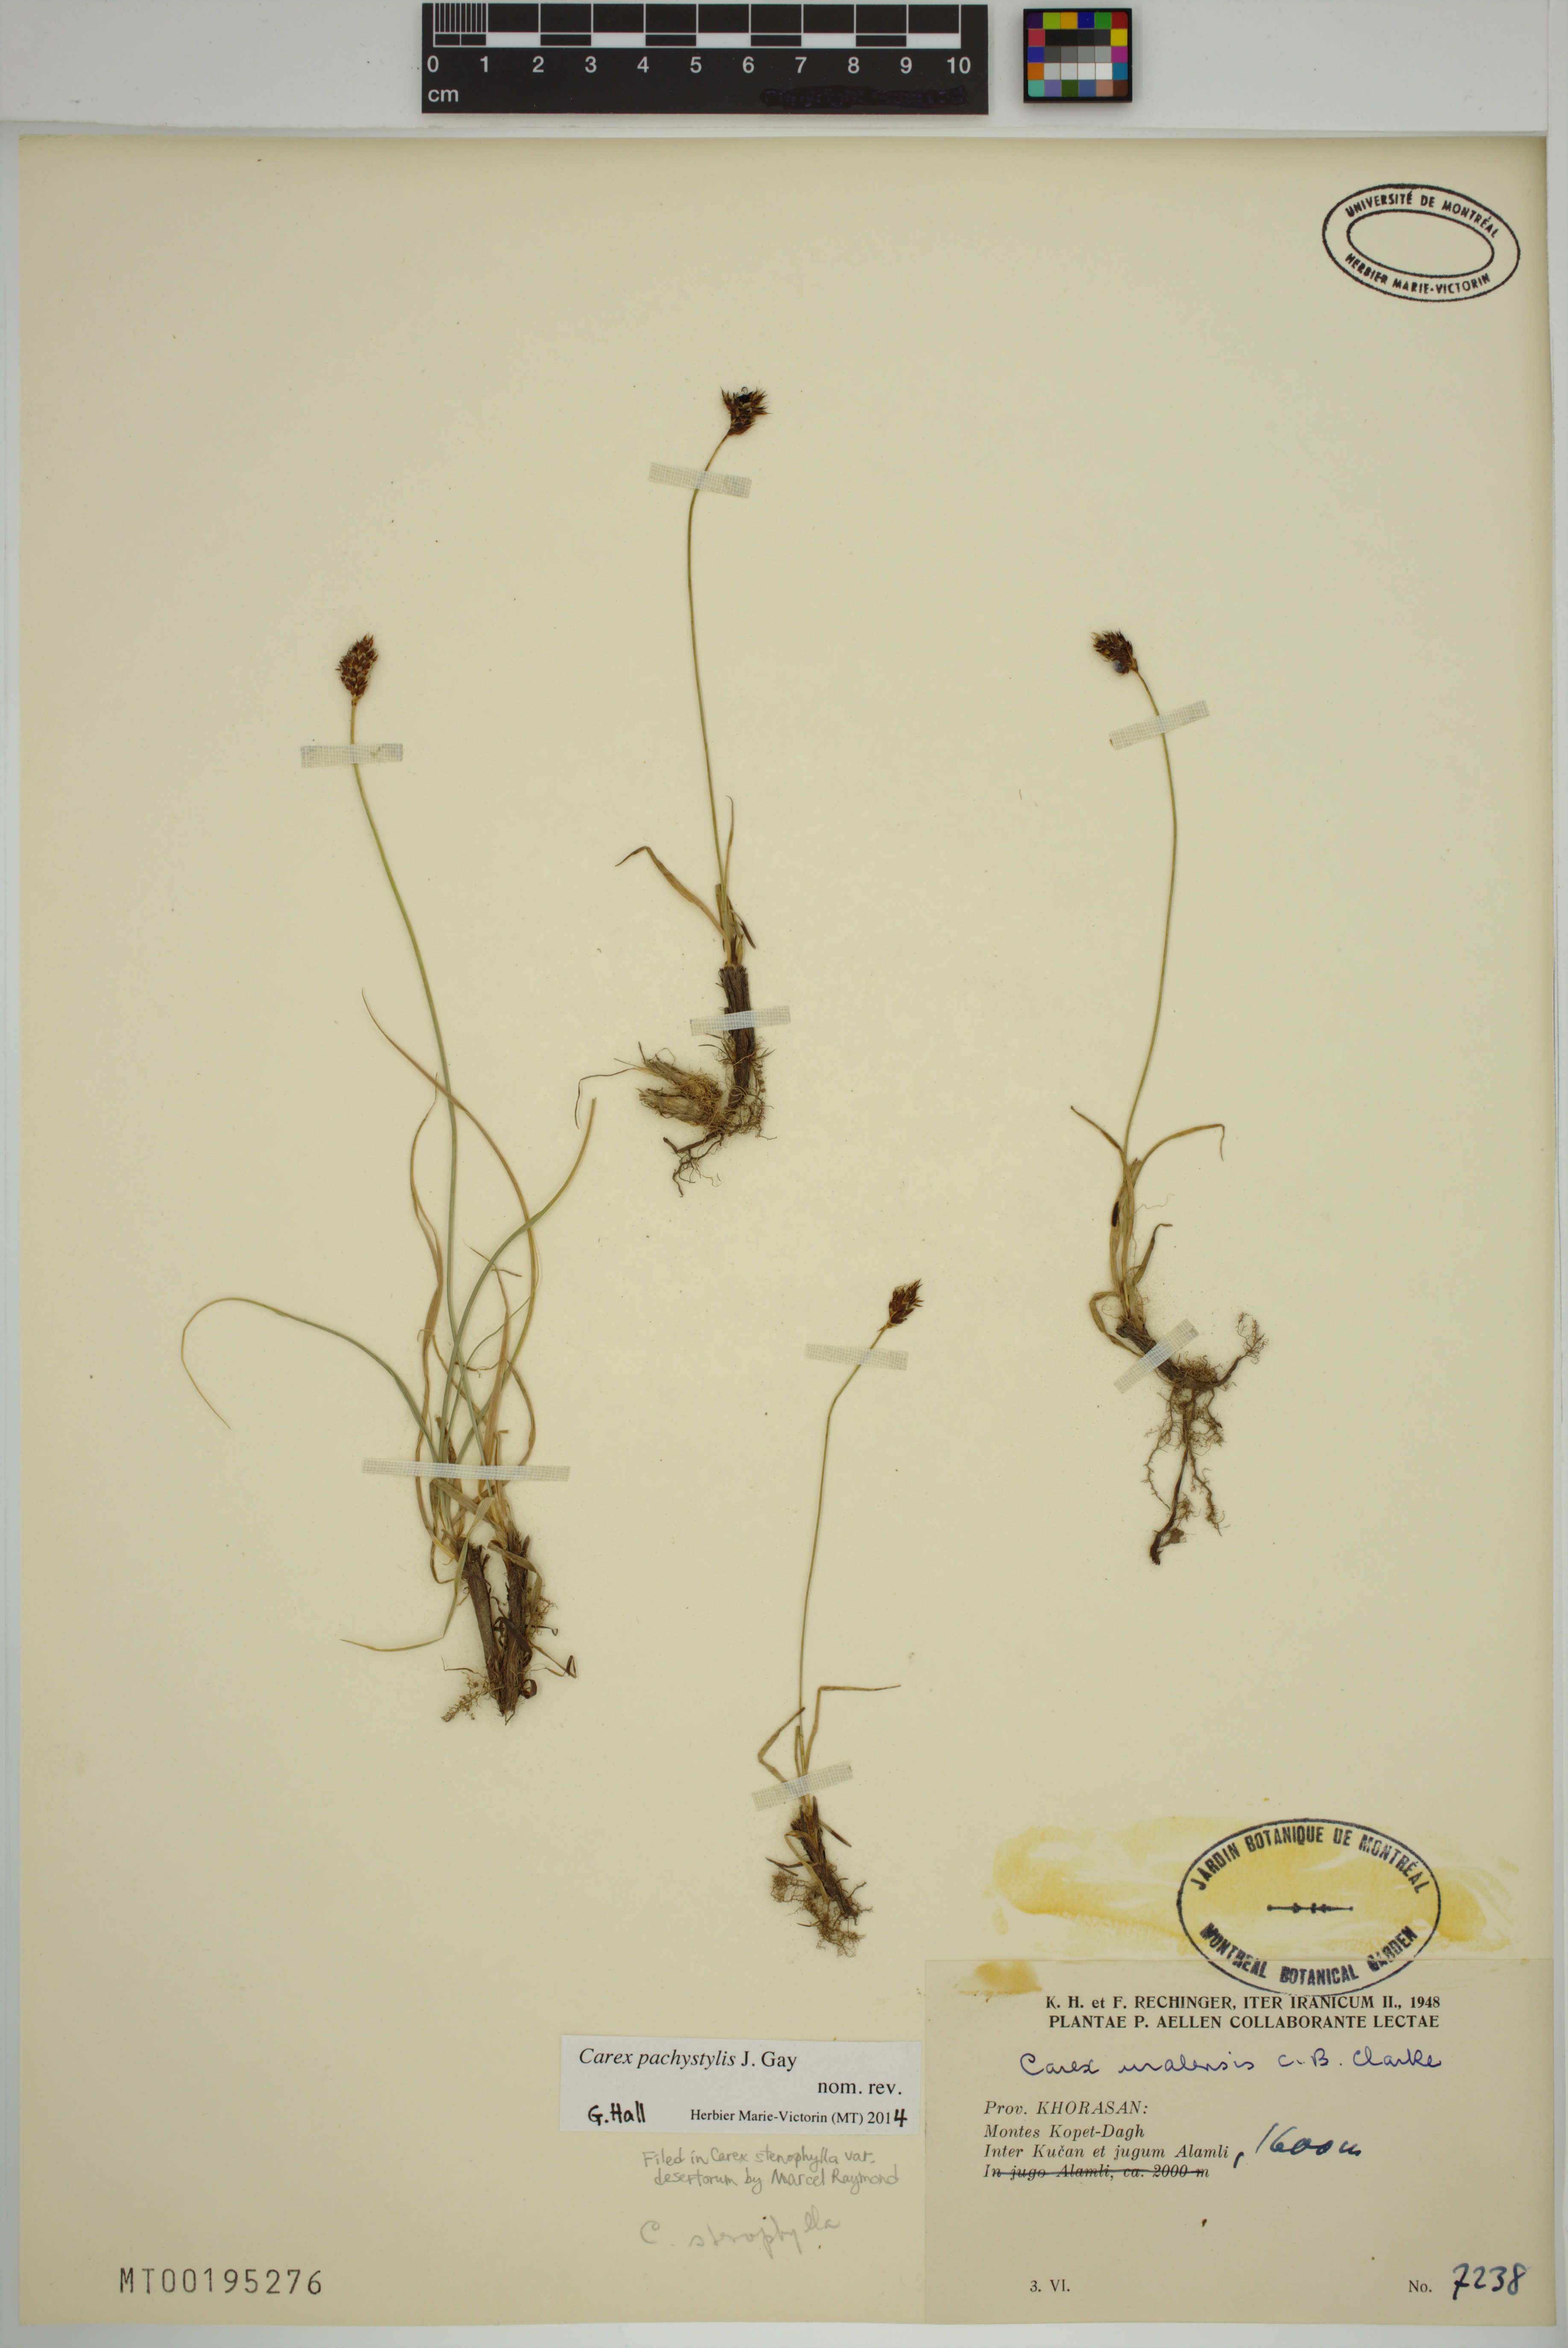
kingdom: Plantae
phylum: Tracheophyta
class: Liliopsida
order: Poales
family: Cyperaceae
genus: Carex
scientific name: Carex pachystylis
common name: Thick-stem sedge
